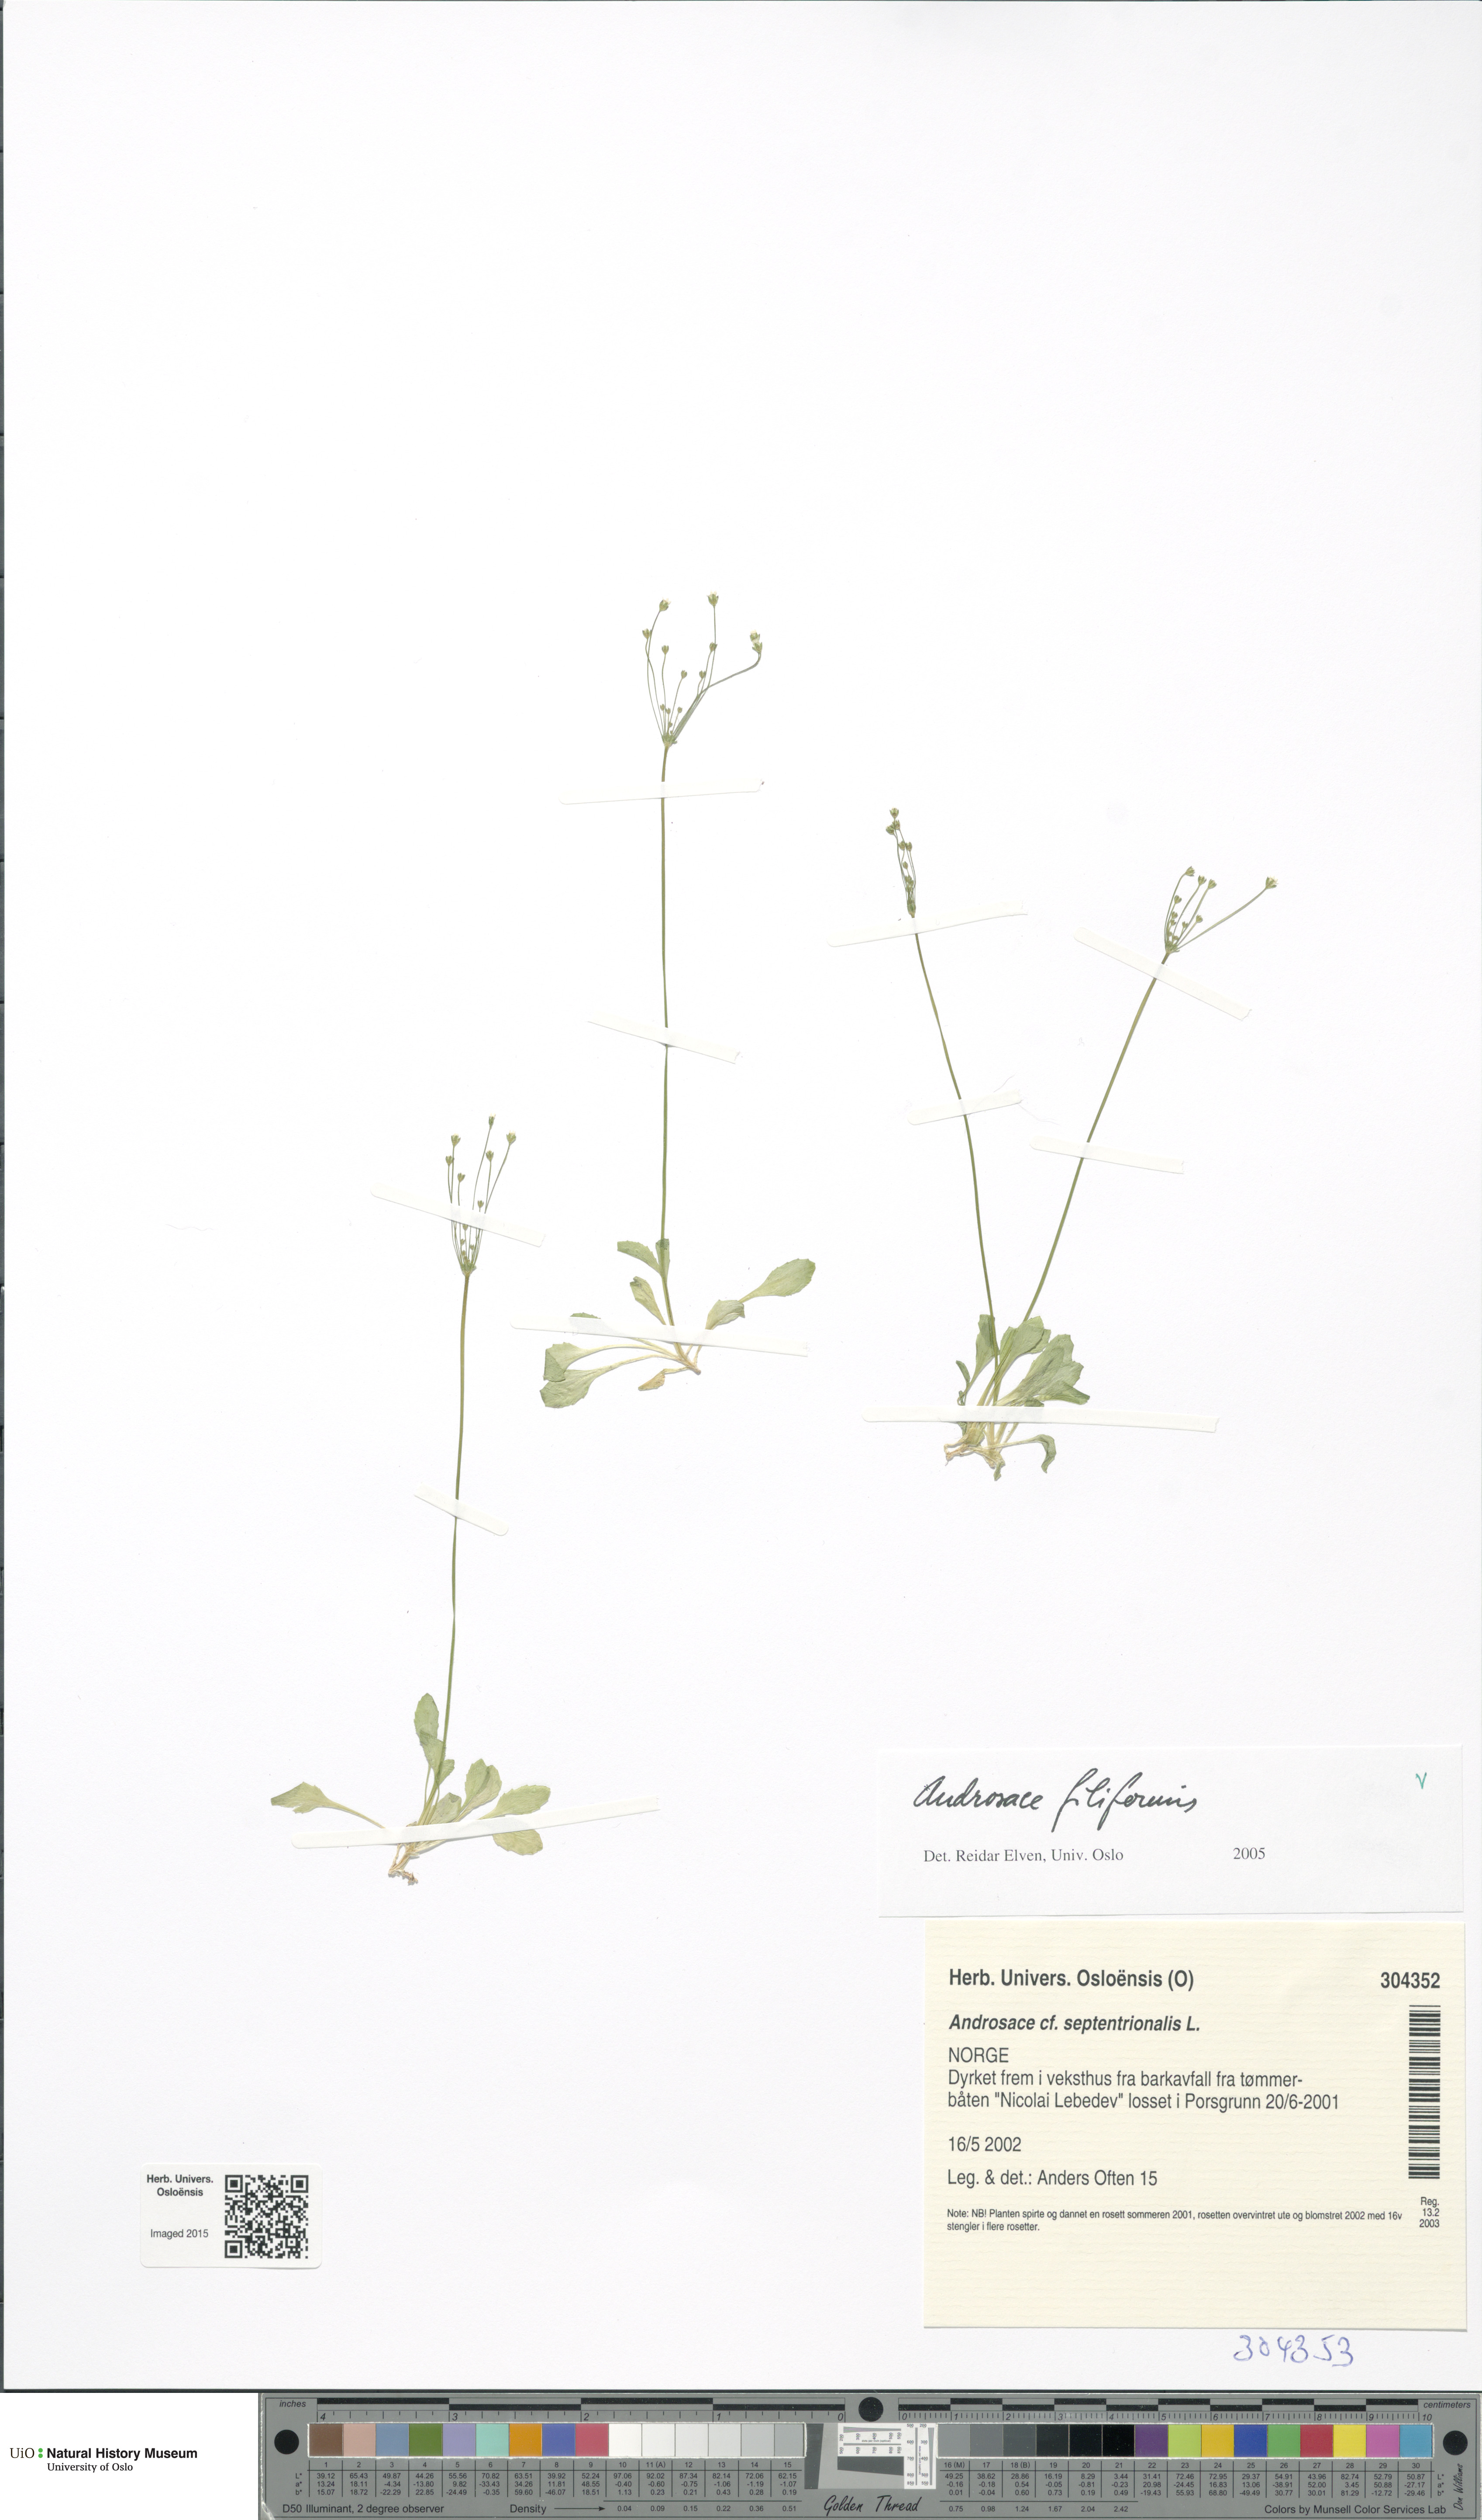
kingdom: Plantae
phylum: Tracheophyta
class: Magnoliopsida
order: Ericales
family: Primulaceae
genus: Androsace
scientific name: Androsace filiformis
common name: Filiform rock jasmine
